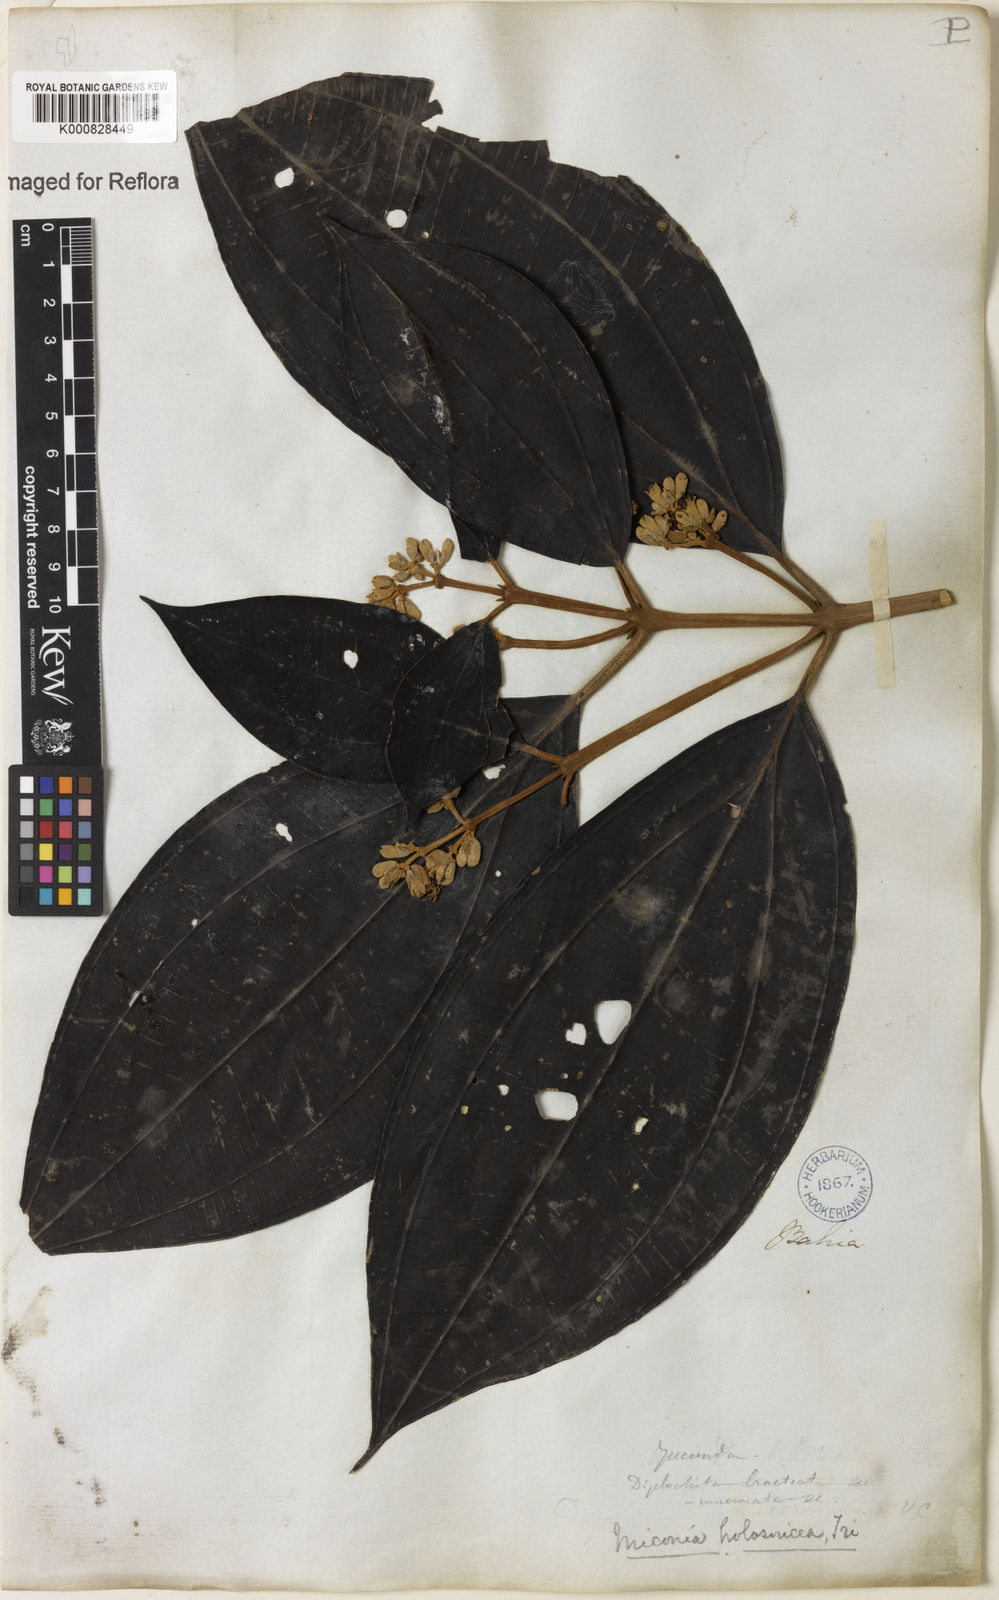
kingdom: Plantae
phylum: Tracheophyta
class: Magnoliopsida
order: Myrtales
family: Melastomataceae
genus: Miconia
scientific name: Miconia holosericea
